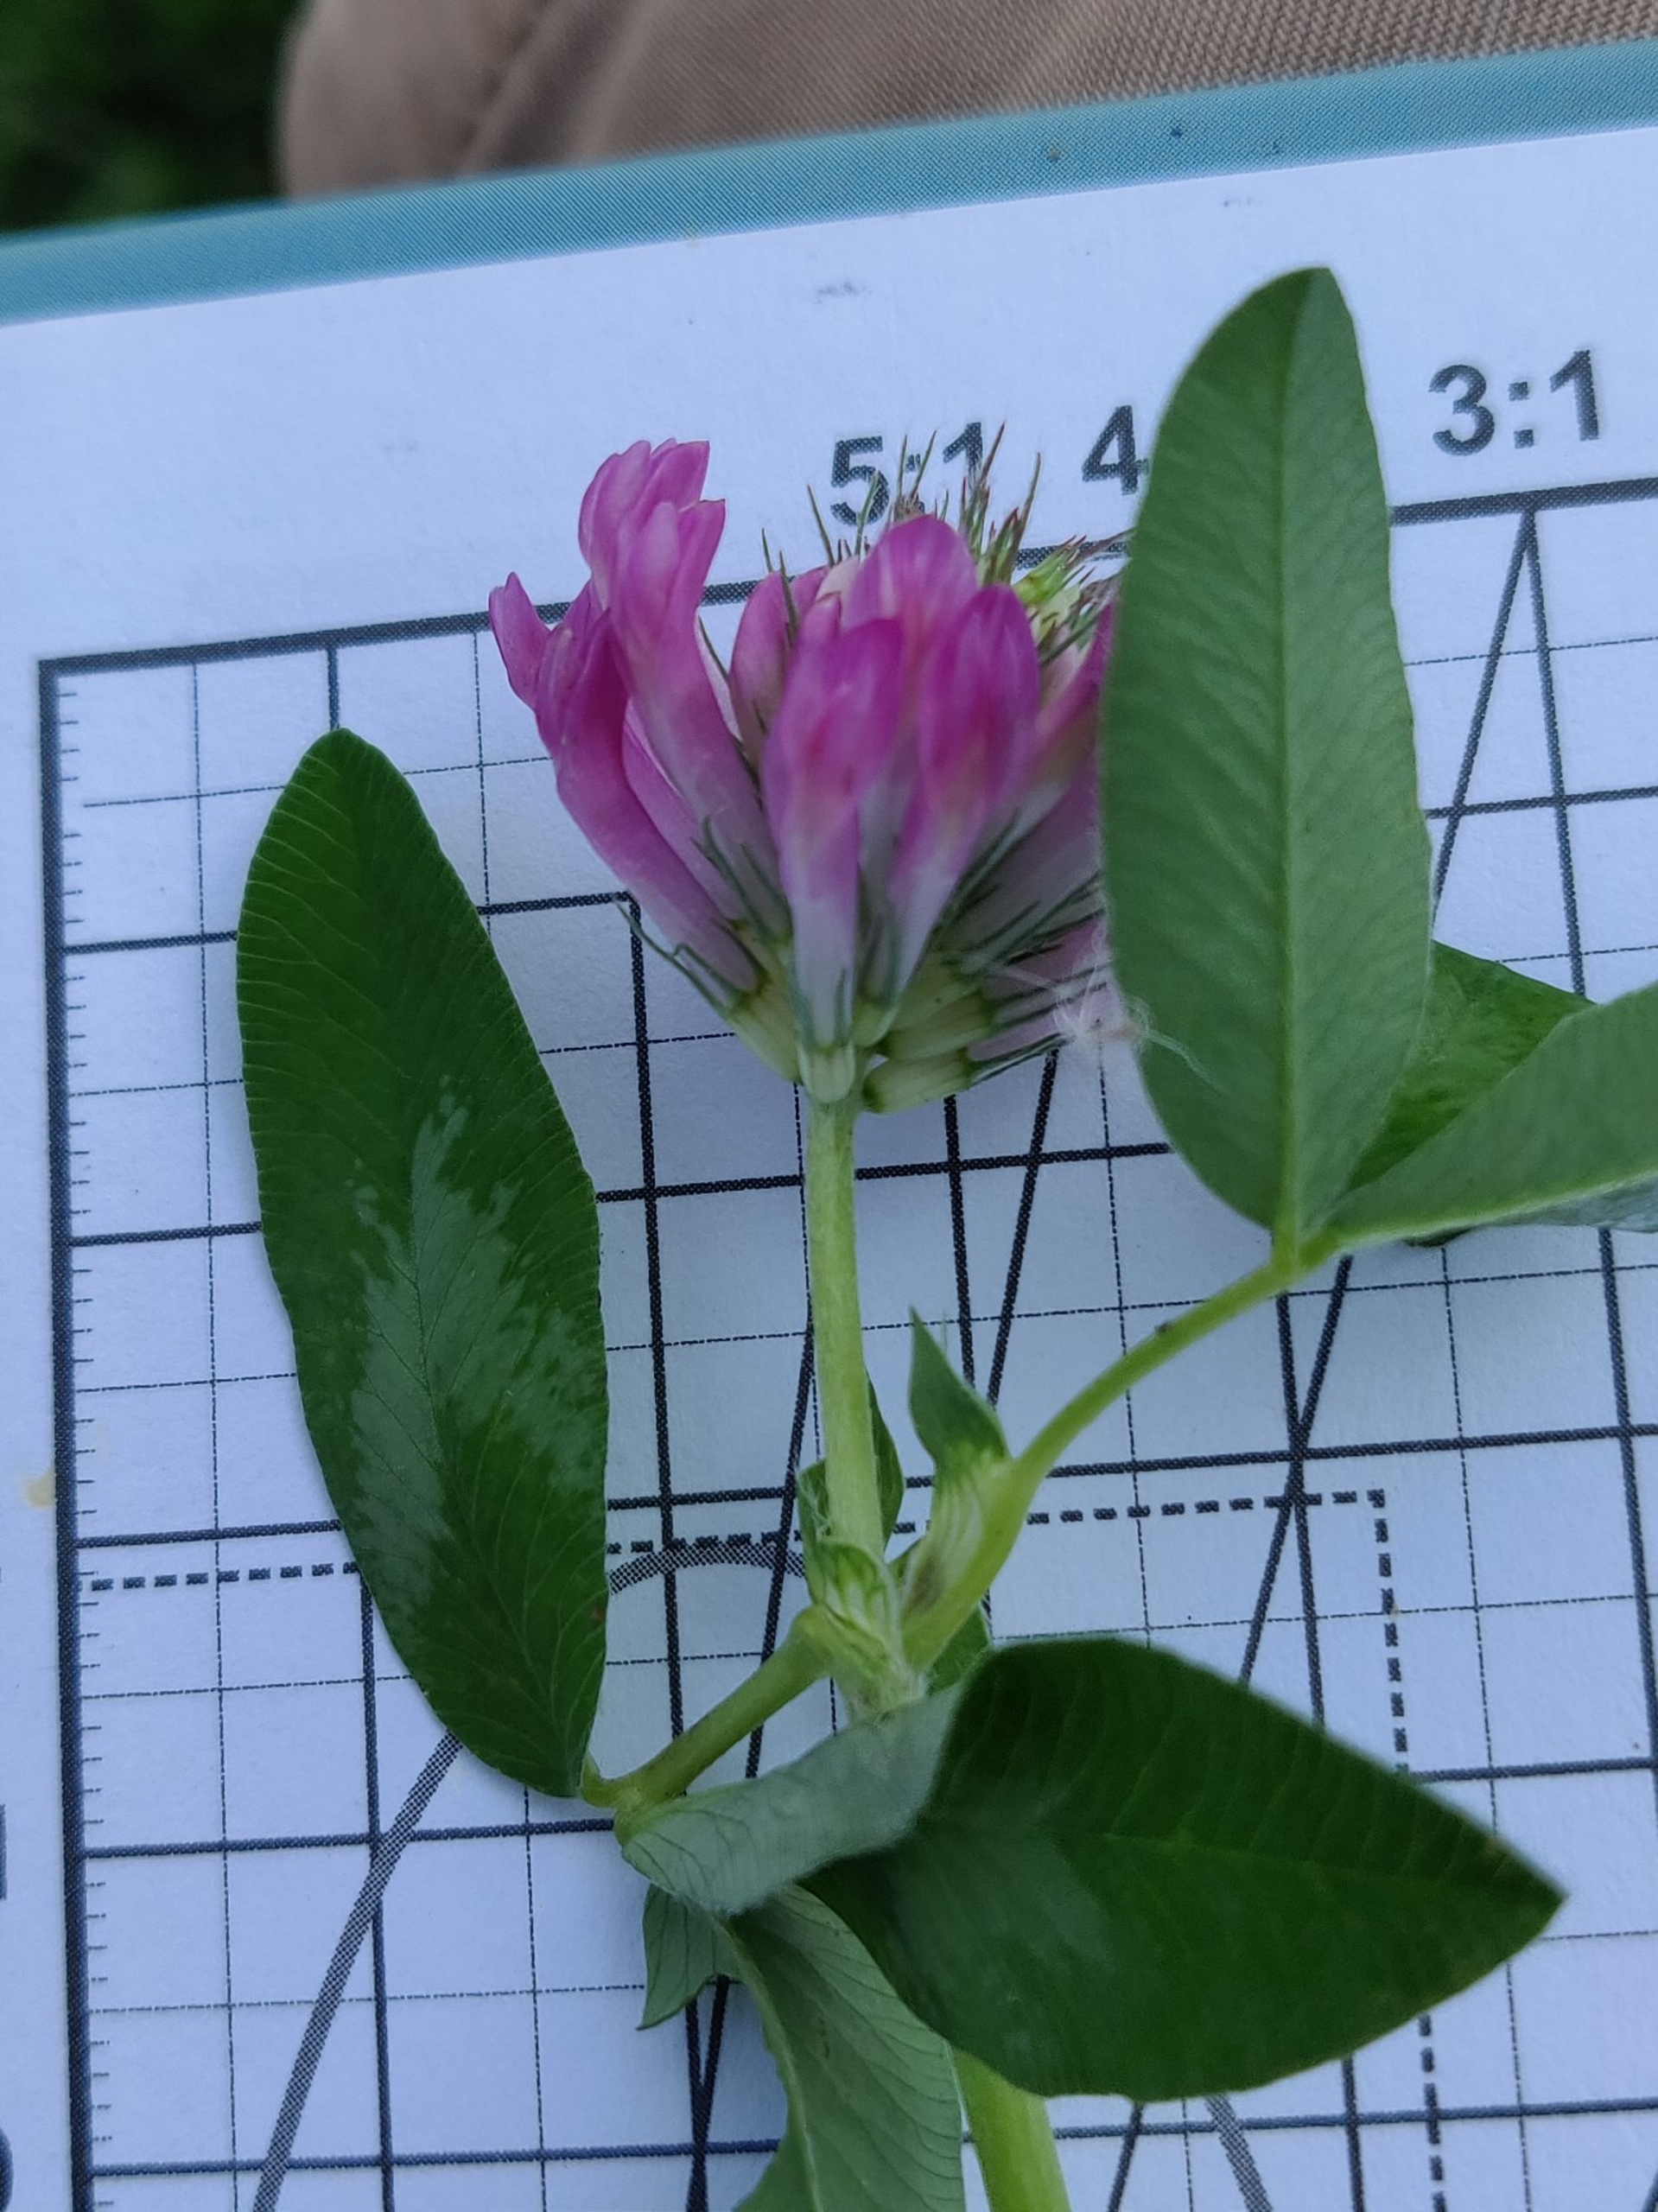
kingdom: Plantae
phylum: Tracheophyta
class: Magnoliopsida
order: Fabales
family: Fabaceae
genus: Trifolium
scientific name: Trifolium medium
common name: Bugtet kløver
